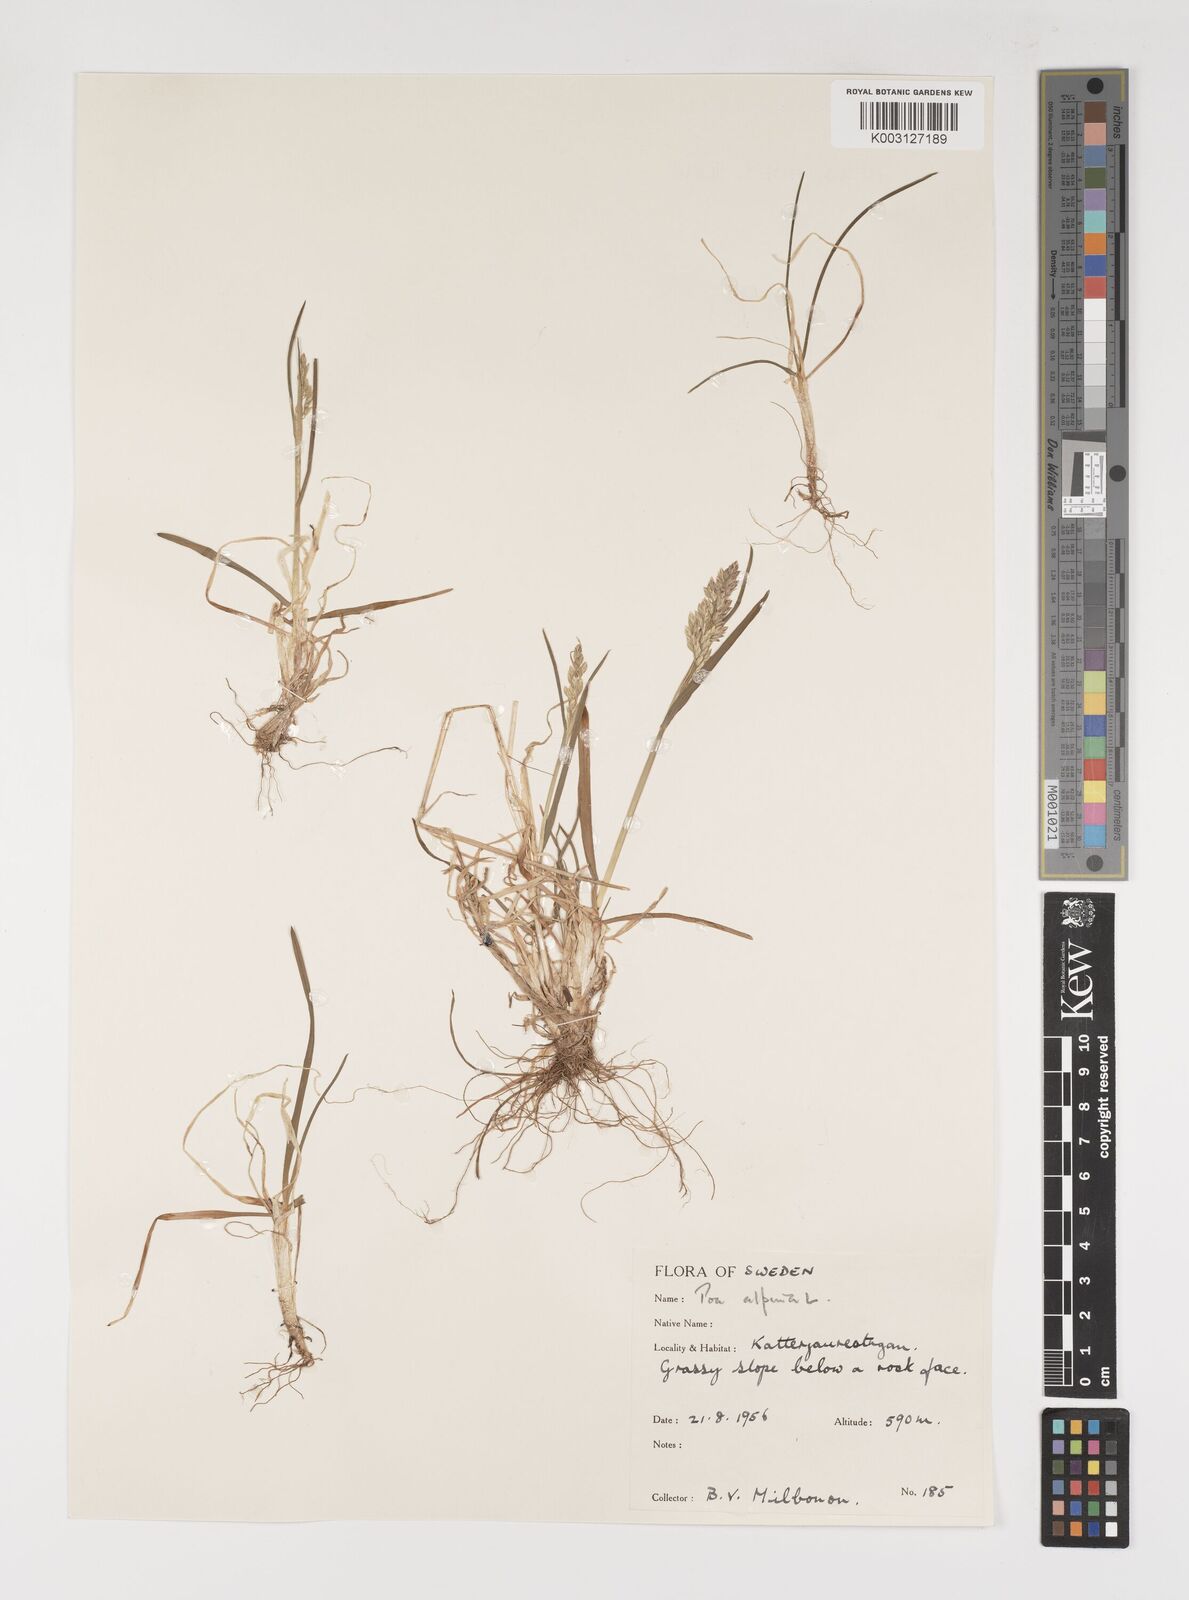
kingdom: Plantae
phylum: Tracheophyta
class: Liliopsida
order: Poales
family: Poaceae
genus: Poa
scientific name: Poa alpina
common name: Alpine bluegrass
